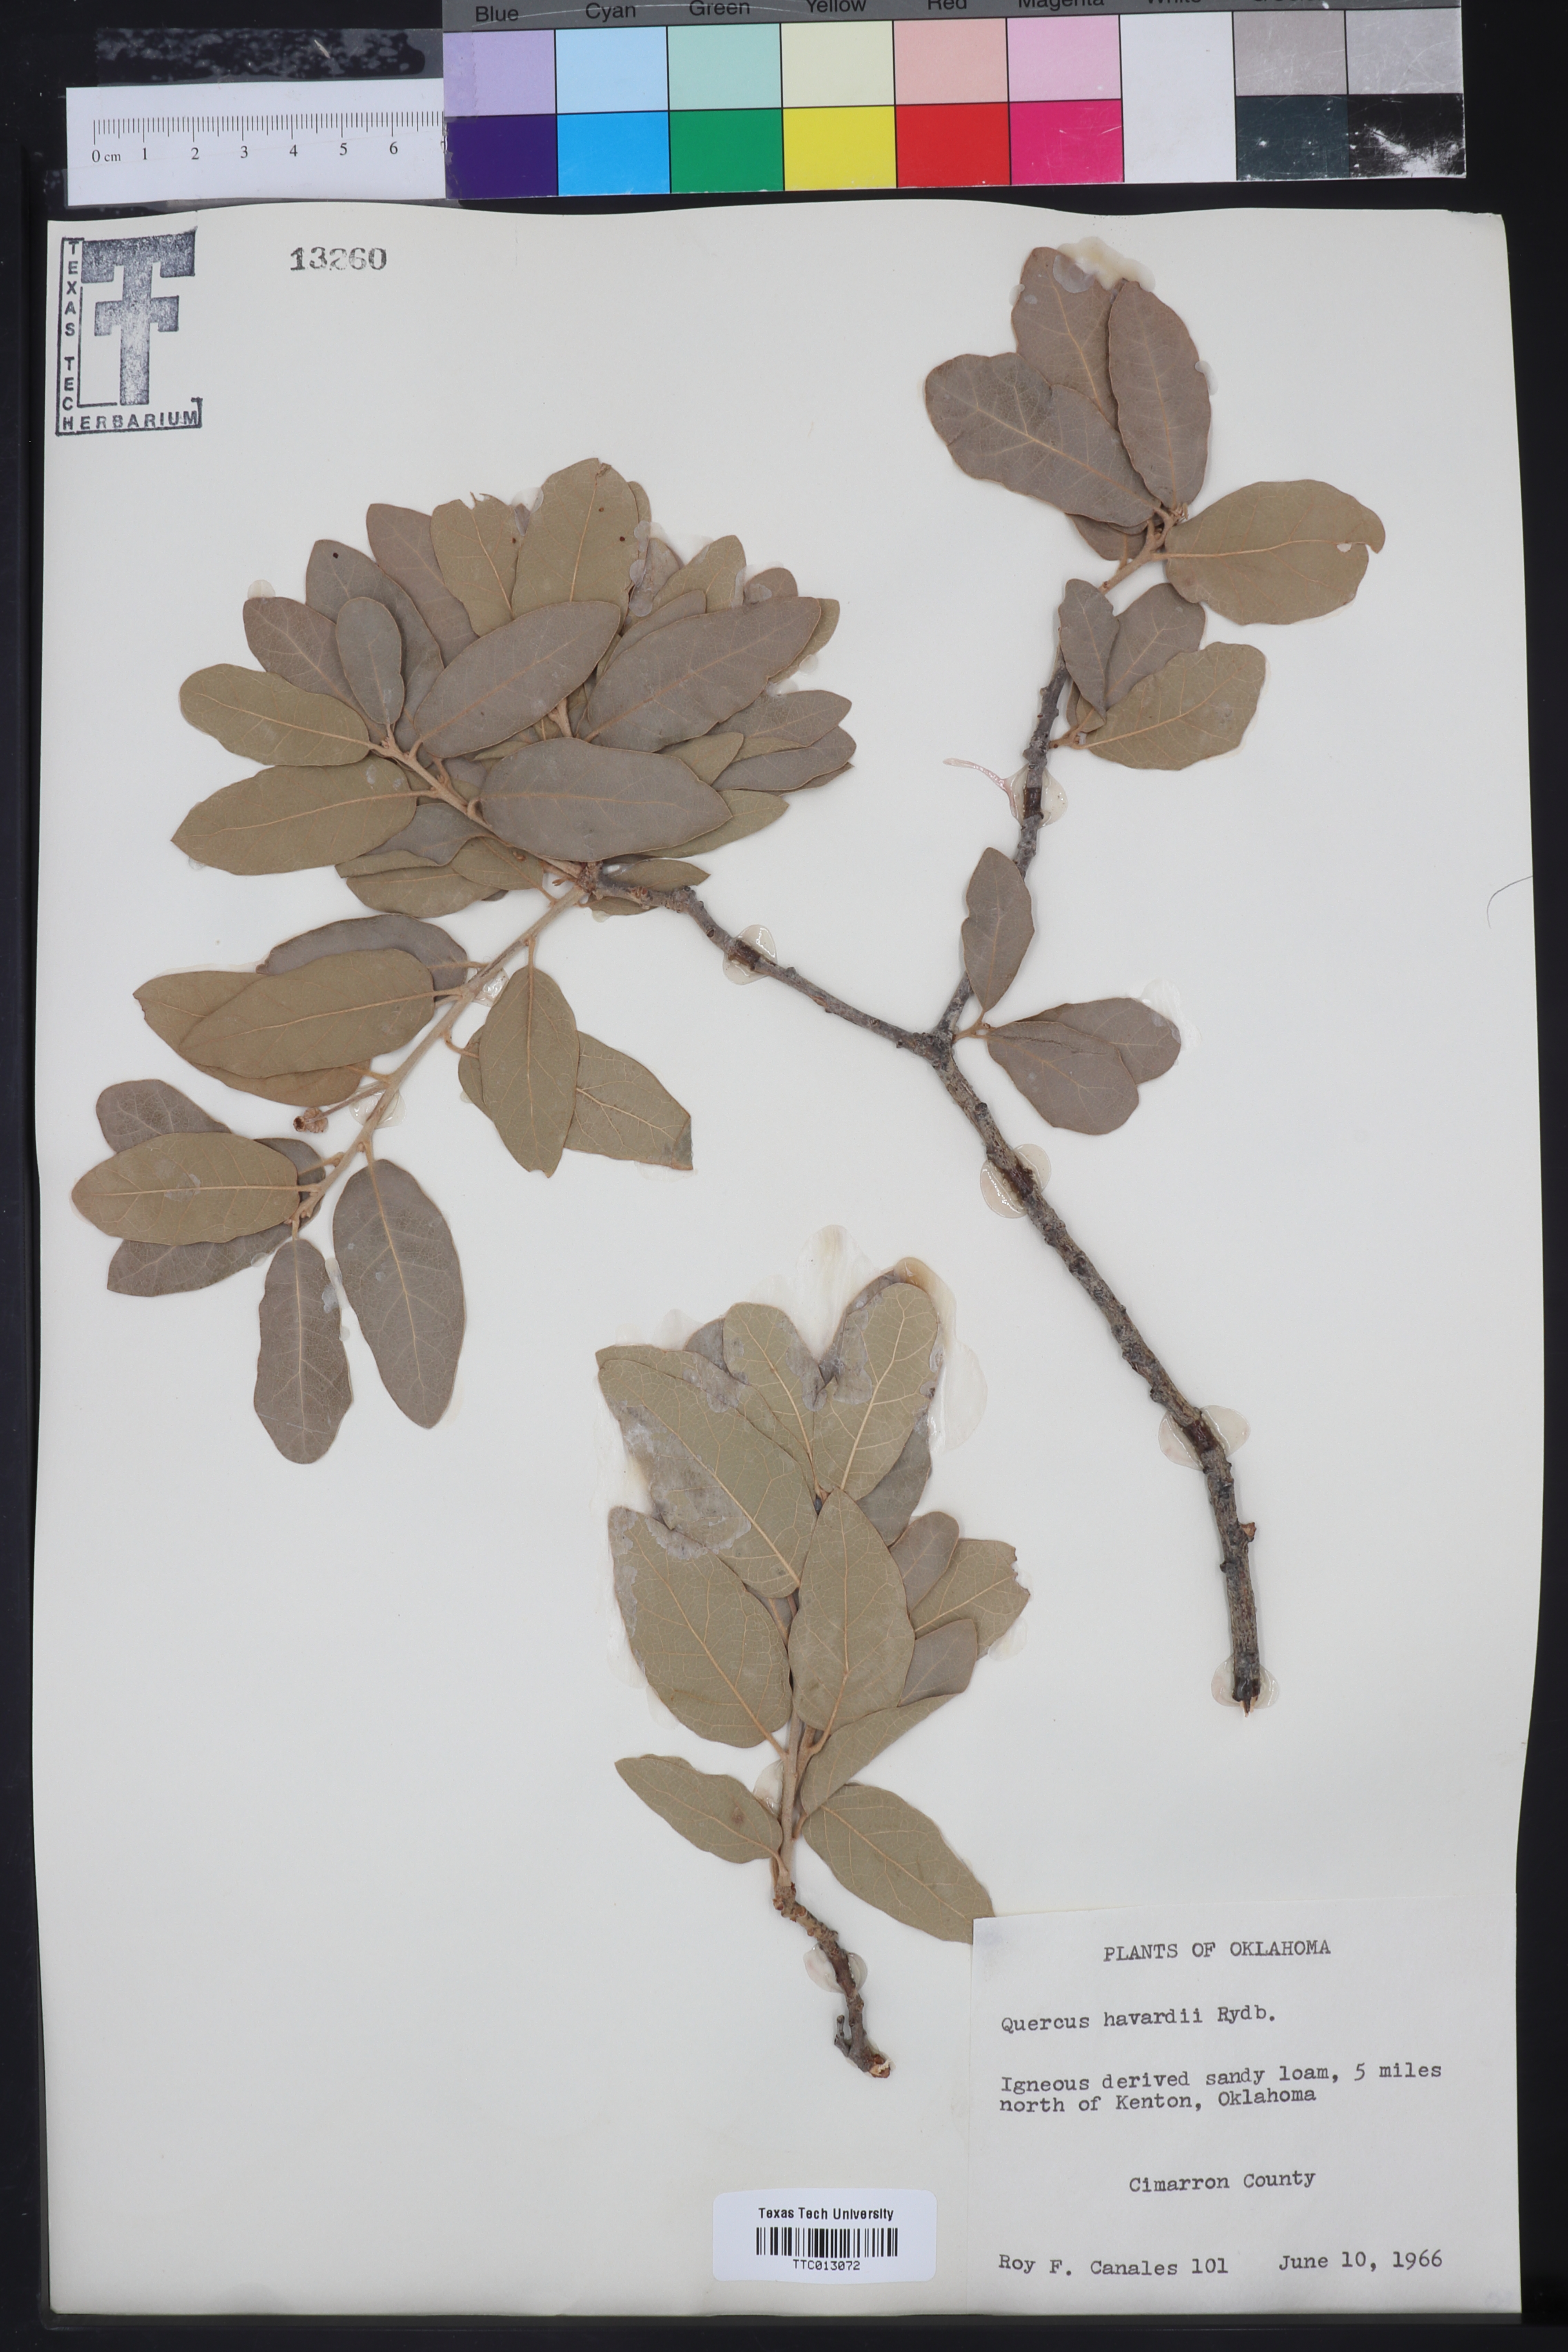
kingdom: Plantae
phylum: Tracheophyta
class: Magnoliopsida
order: Fagales
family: Fagaceae
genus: Quercus
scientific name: Quercus havardii
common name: Shinnery oak
